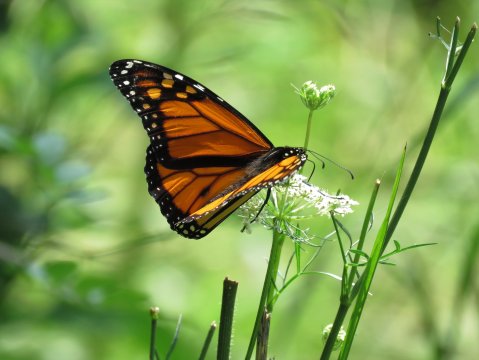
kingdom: Animalia
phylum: Arthropoda
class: Insecta
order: Lepidoptera
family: Nymphalidae
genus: Danaus
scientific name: Danaus plexippus
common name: Monarch
